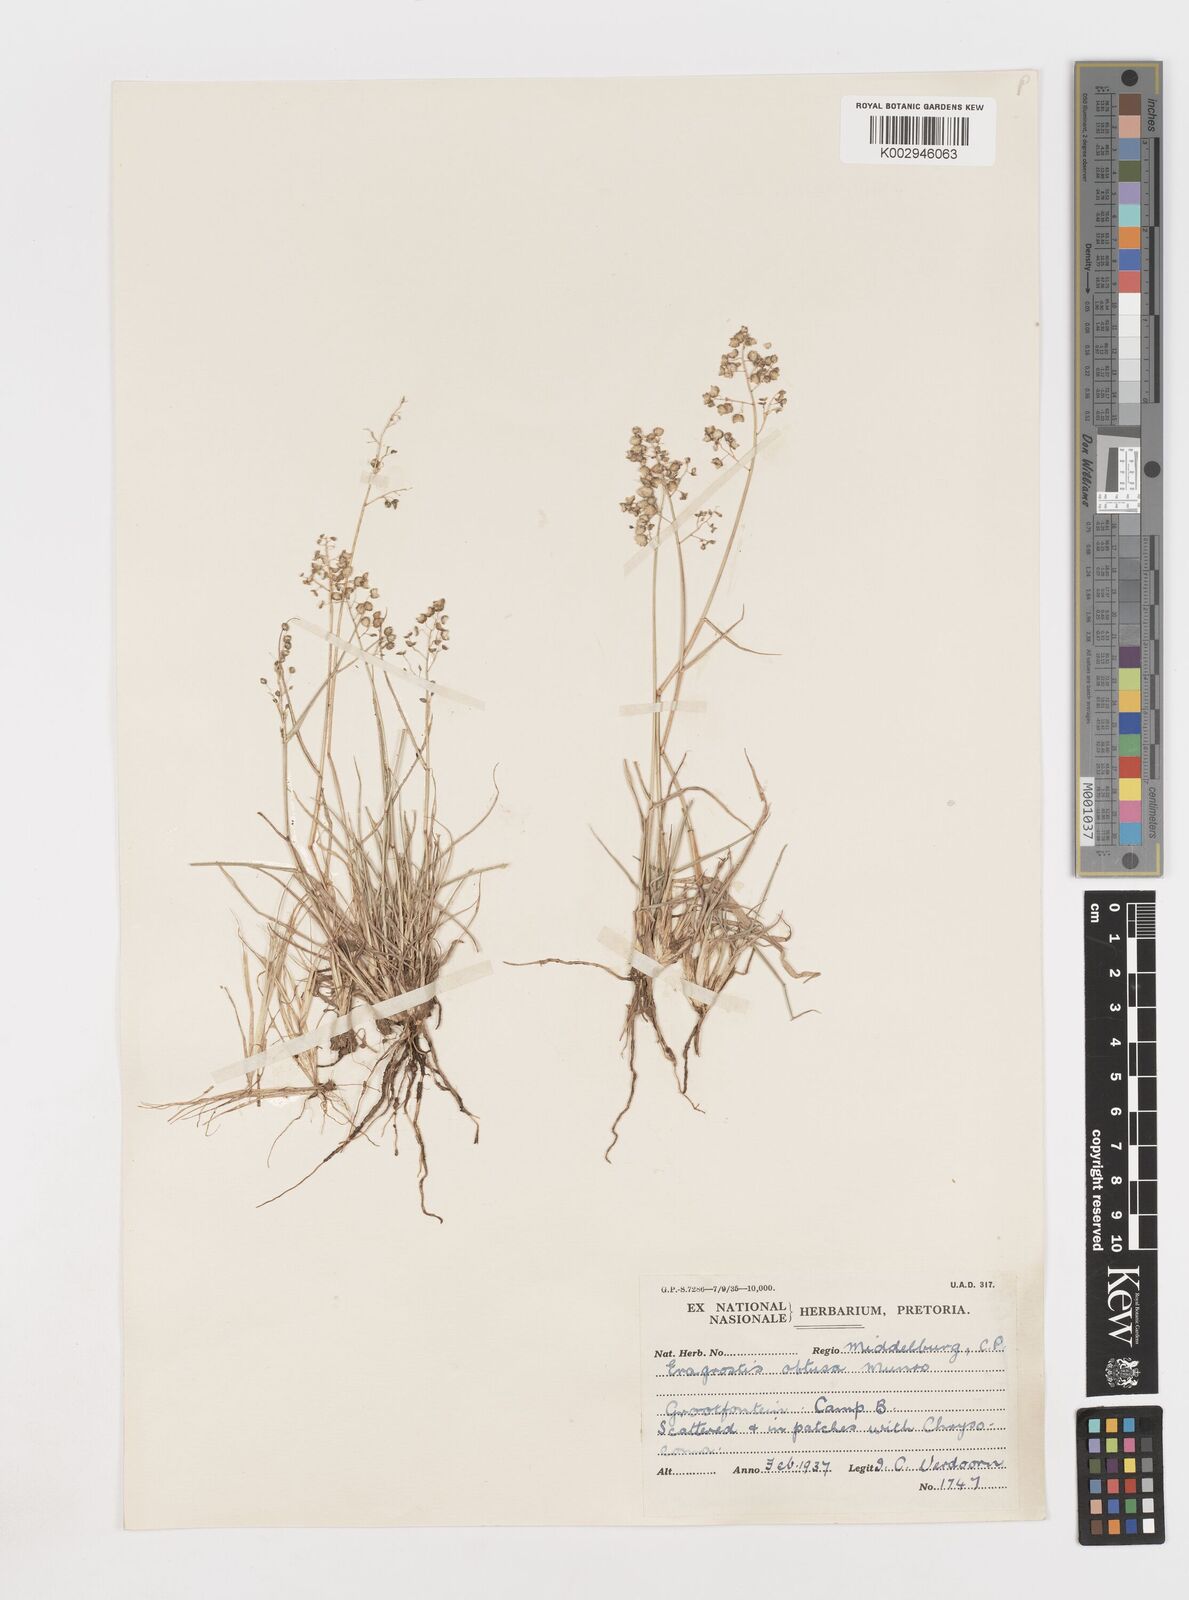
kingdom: Plantae
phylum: Tracheophyta
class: Liliopsida
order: Poales
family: Poaceae
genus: Eragrostis
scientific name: Eragrostis obtusa
